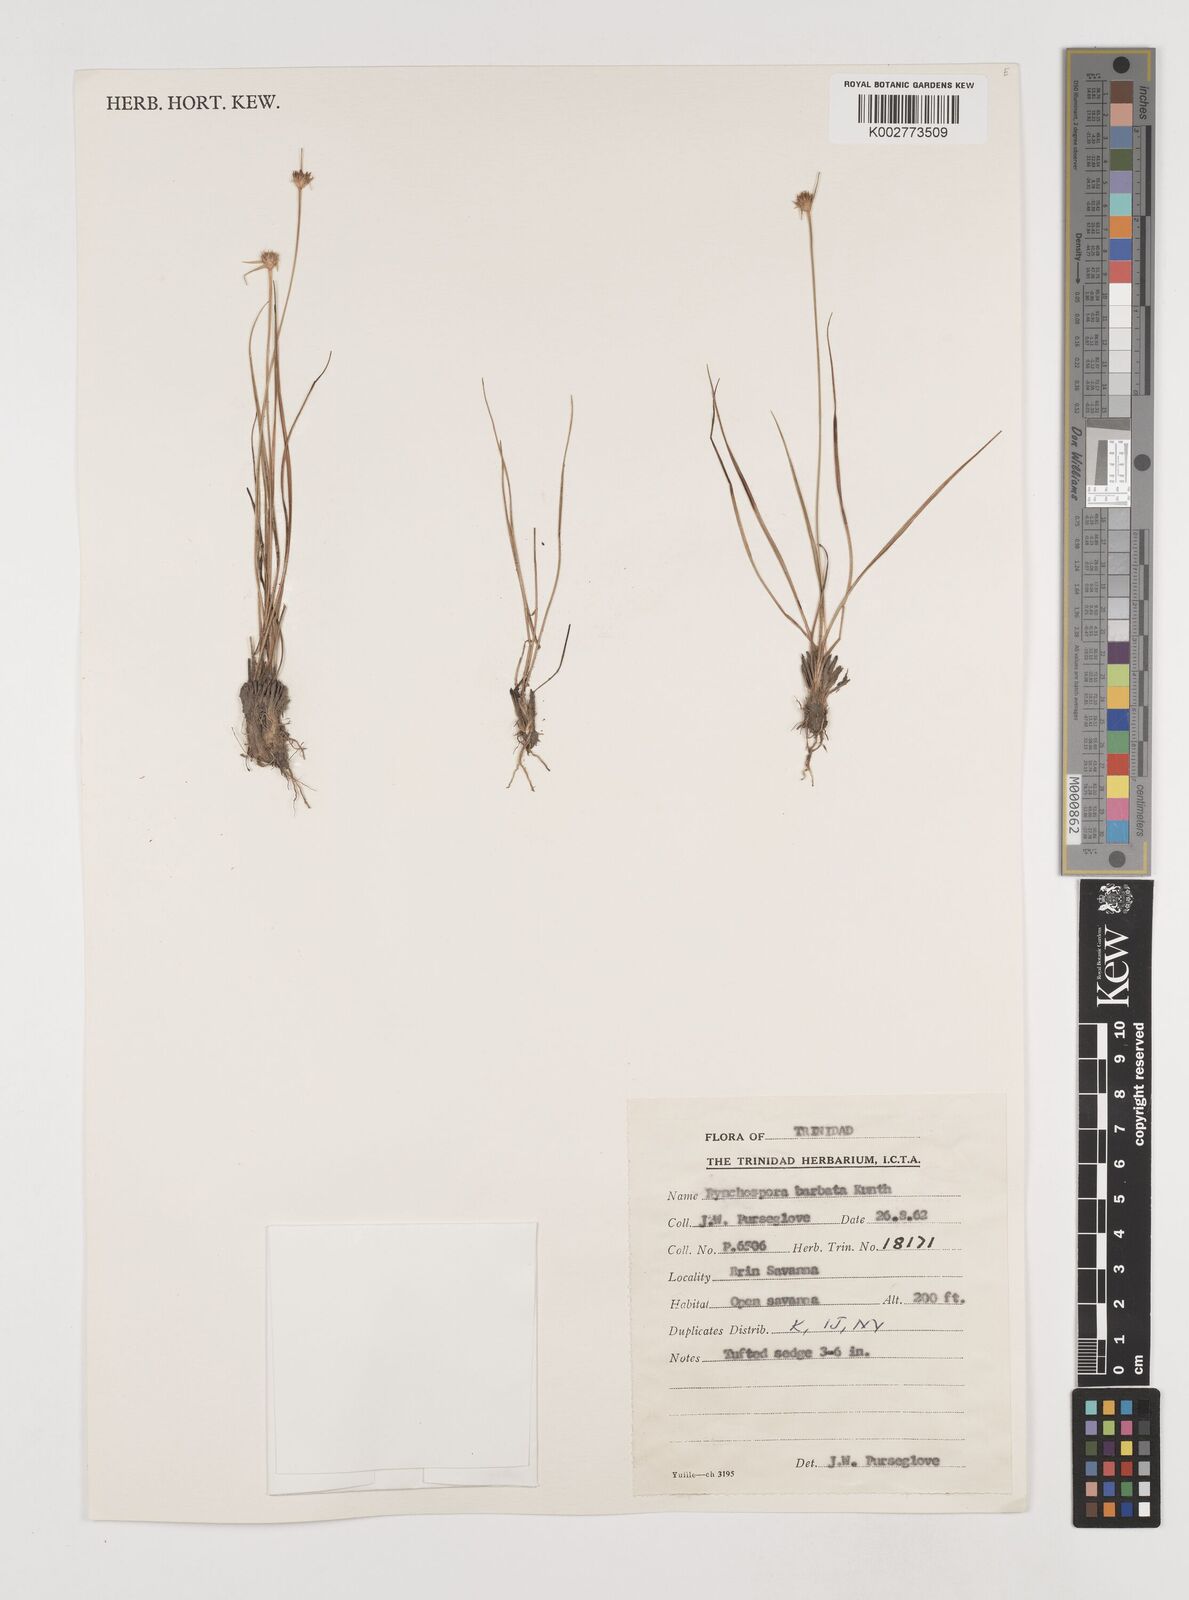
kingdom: Plantae
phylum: Tracheophyta
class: Liliopsida
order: Poales
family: Cyperaceae
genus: Rhynchospora
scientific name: Rhynchospora barbata
